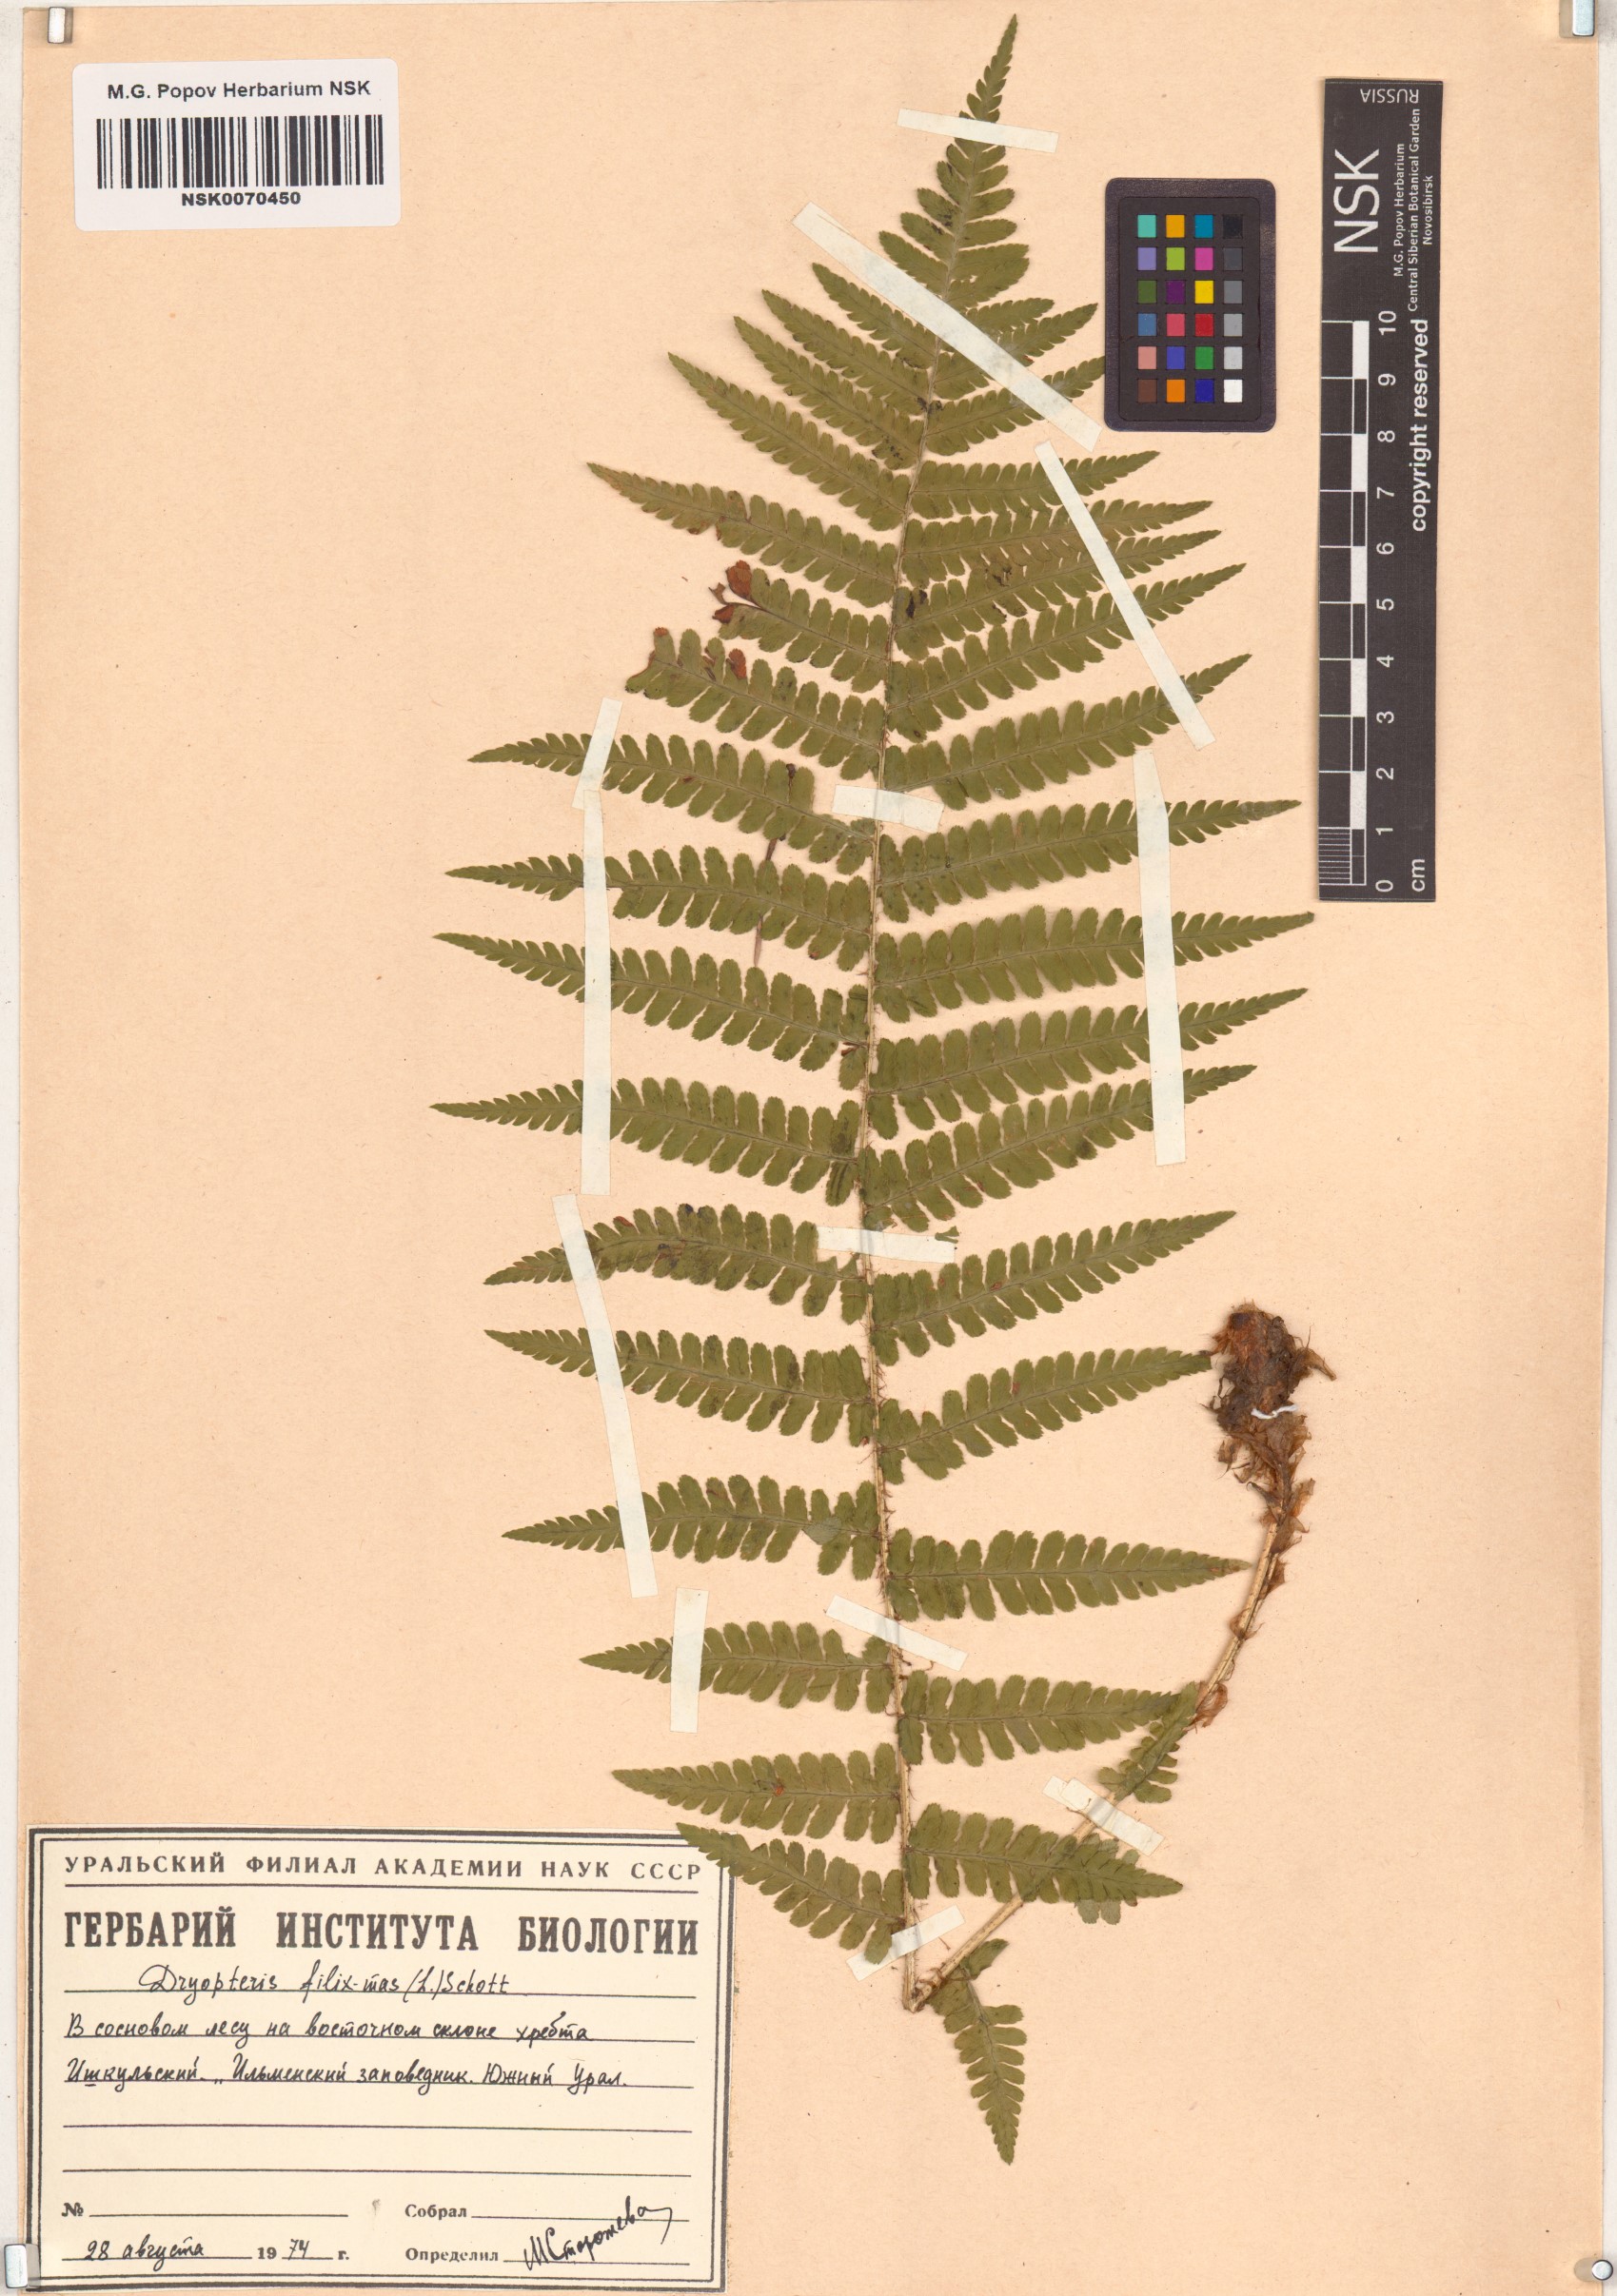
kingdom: Plantae
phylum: Tracheophyta
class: Polypodiopsida
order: Polypodiales
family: Dryopteridaceae
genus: Dryopteris
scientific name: Dryopteris filix-mas
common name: Male fern
